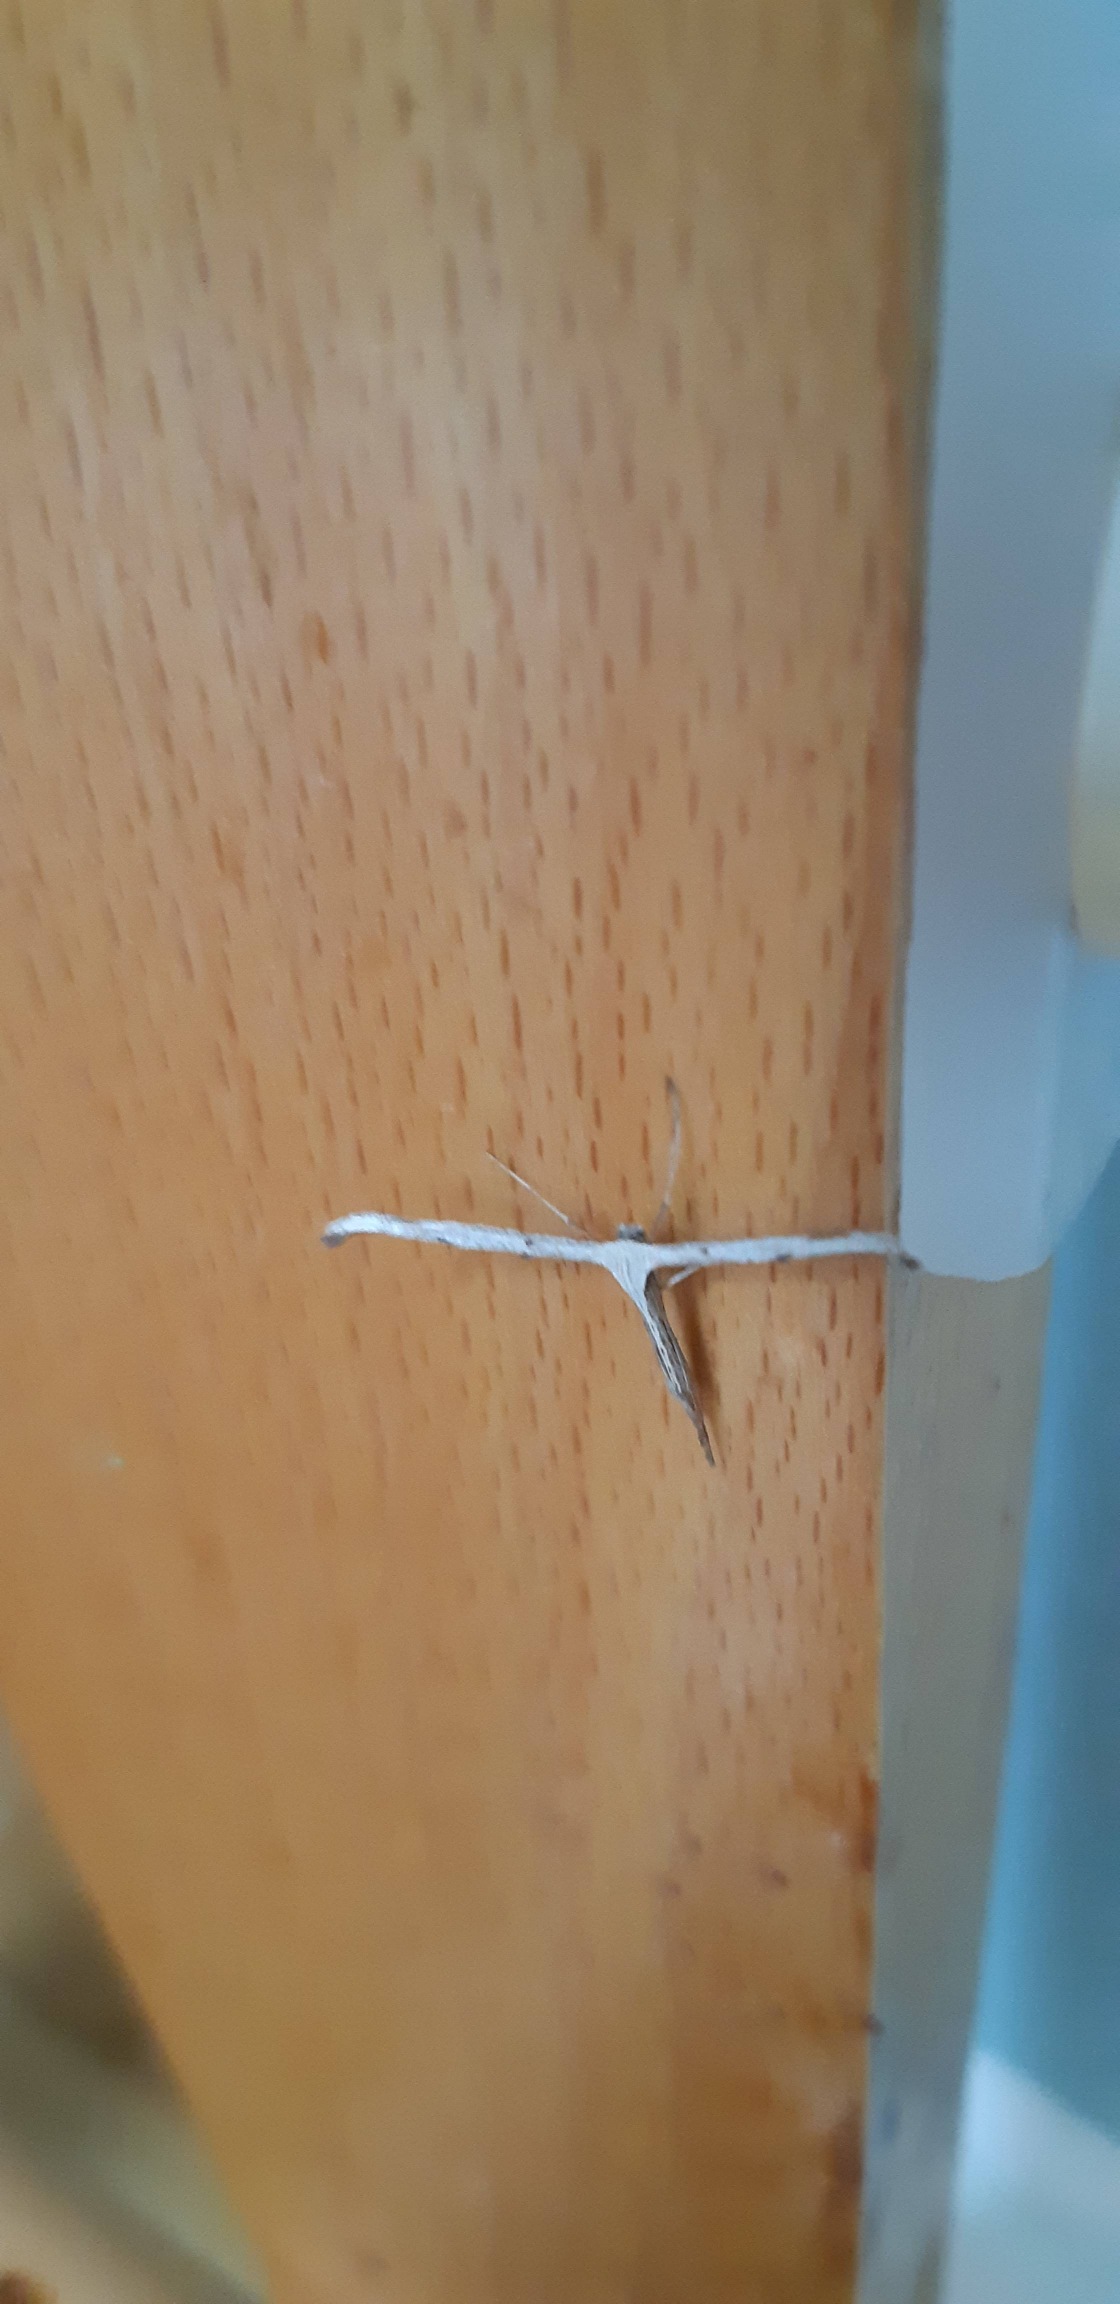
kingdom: Animalia
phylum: Arthropoda
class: Insecta
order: Lepidoptera
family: Pterophoridae
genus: Emmelina
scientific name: Emmelina monodactyla
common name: Snerlefjermøl
